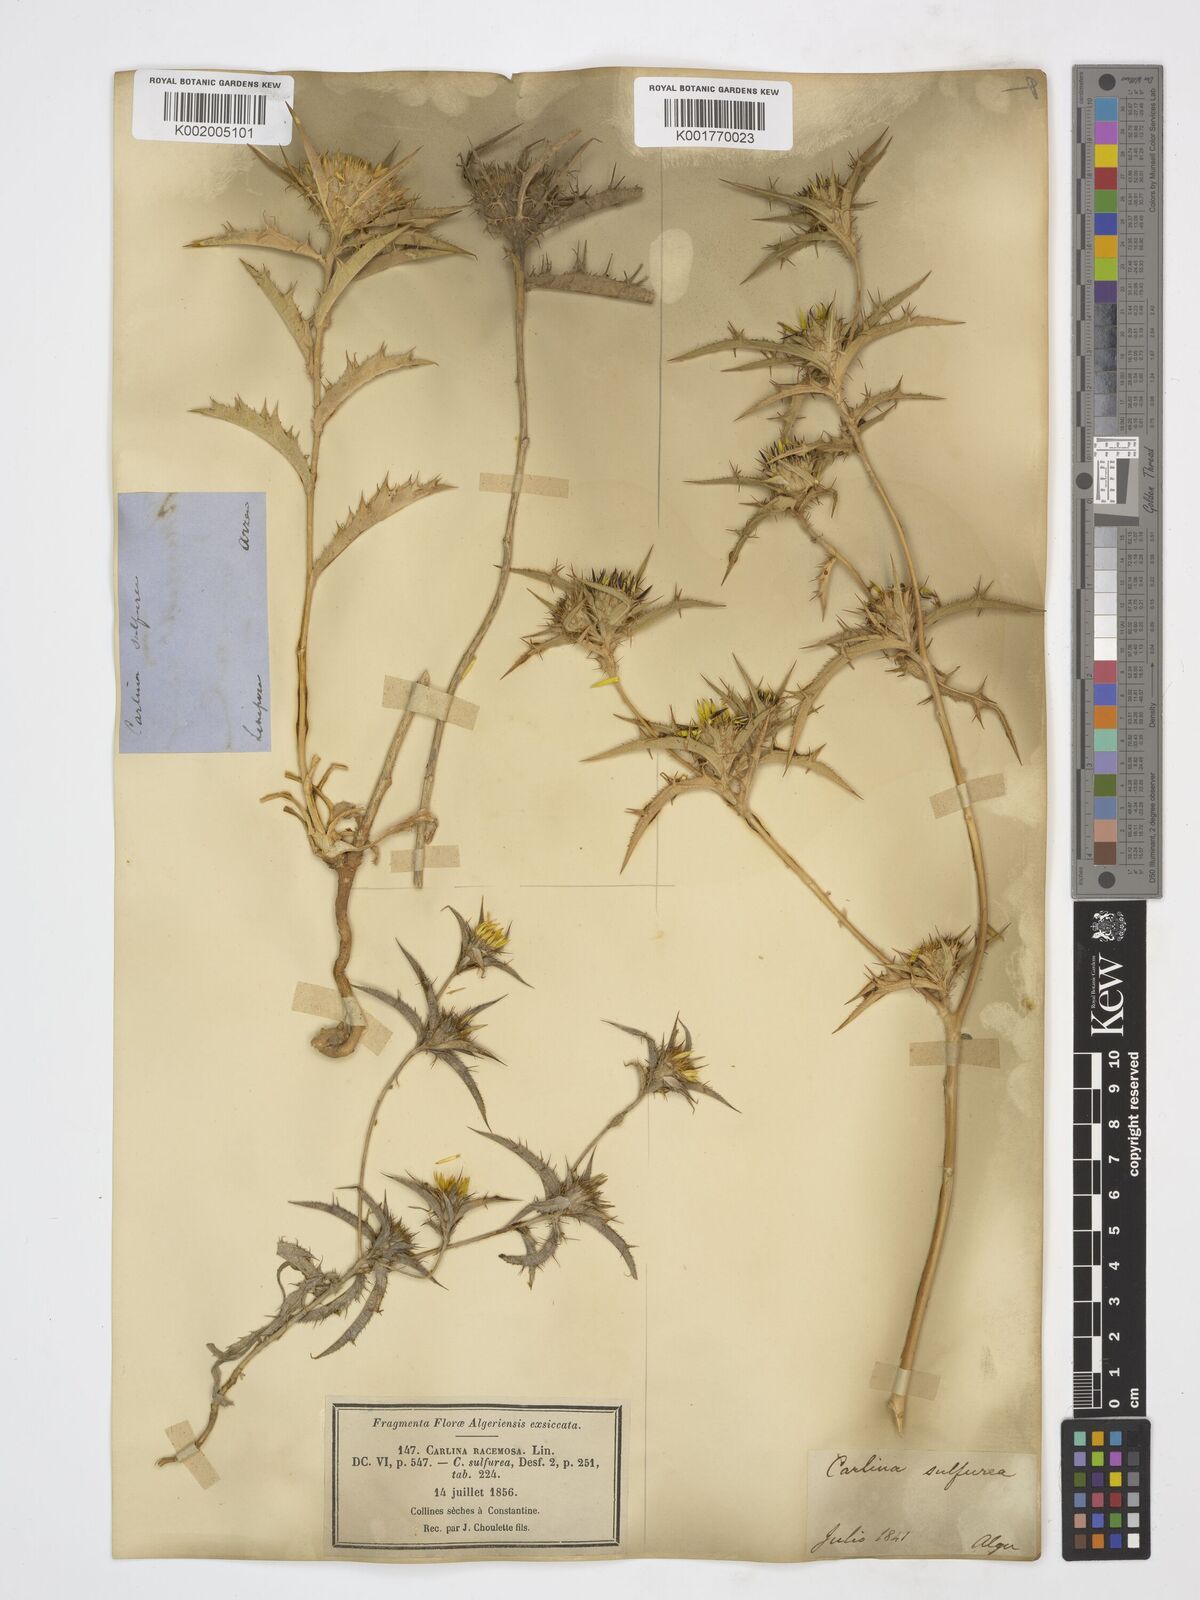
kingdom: Plantae
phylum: Tracheophyta
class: Magnoliopsida
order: Asterales
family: Asteraceae
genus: Carlina
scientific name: Carlina racemosa
